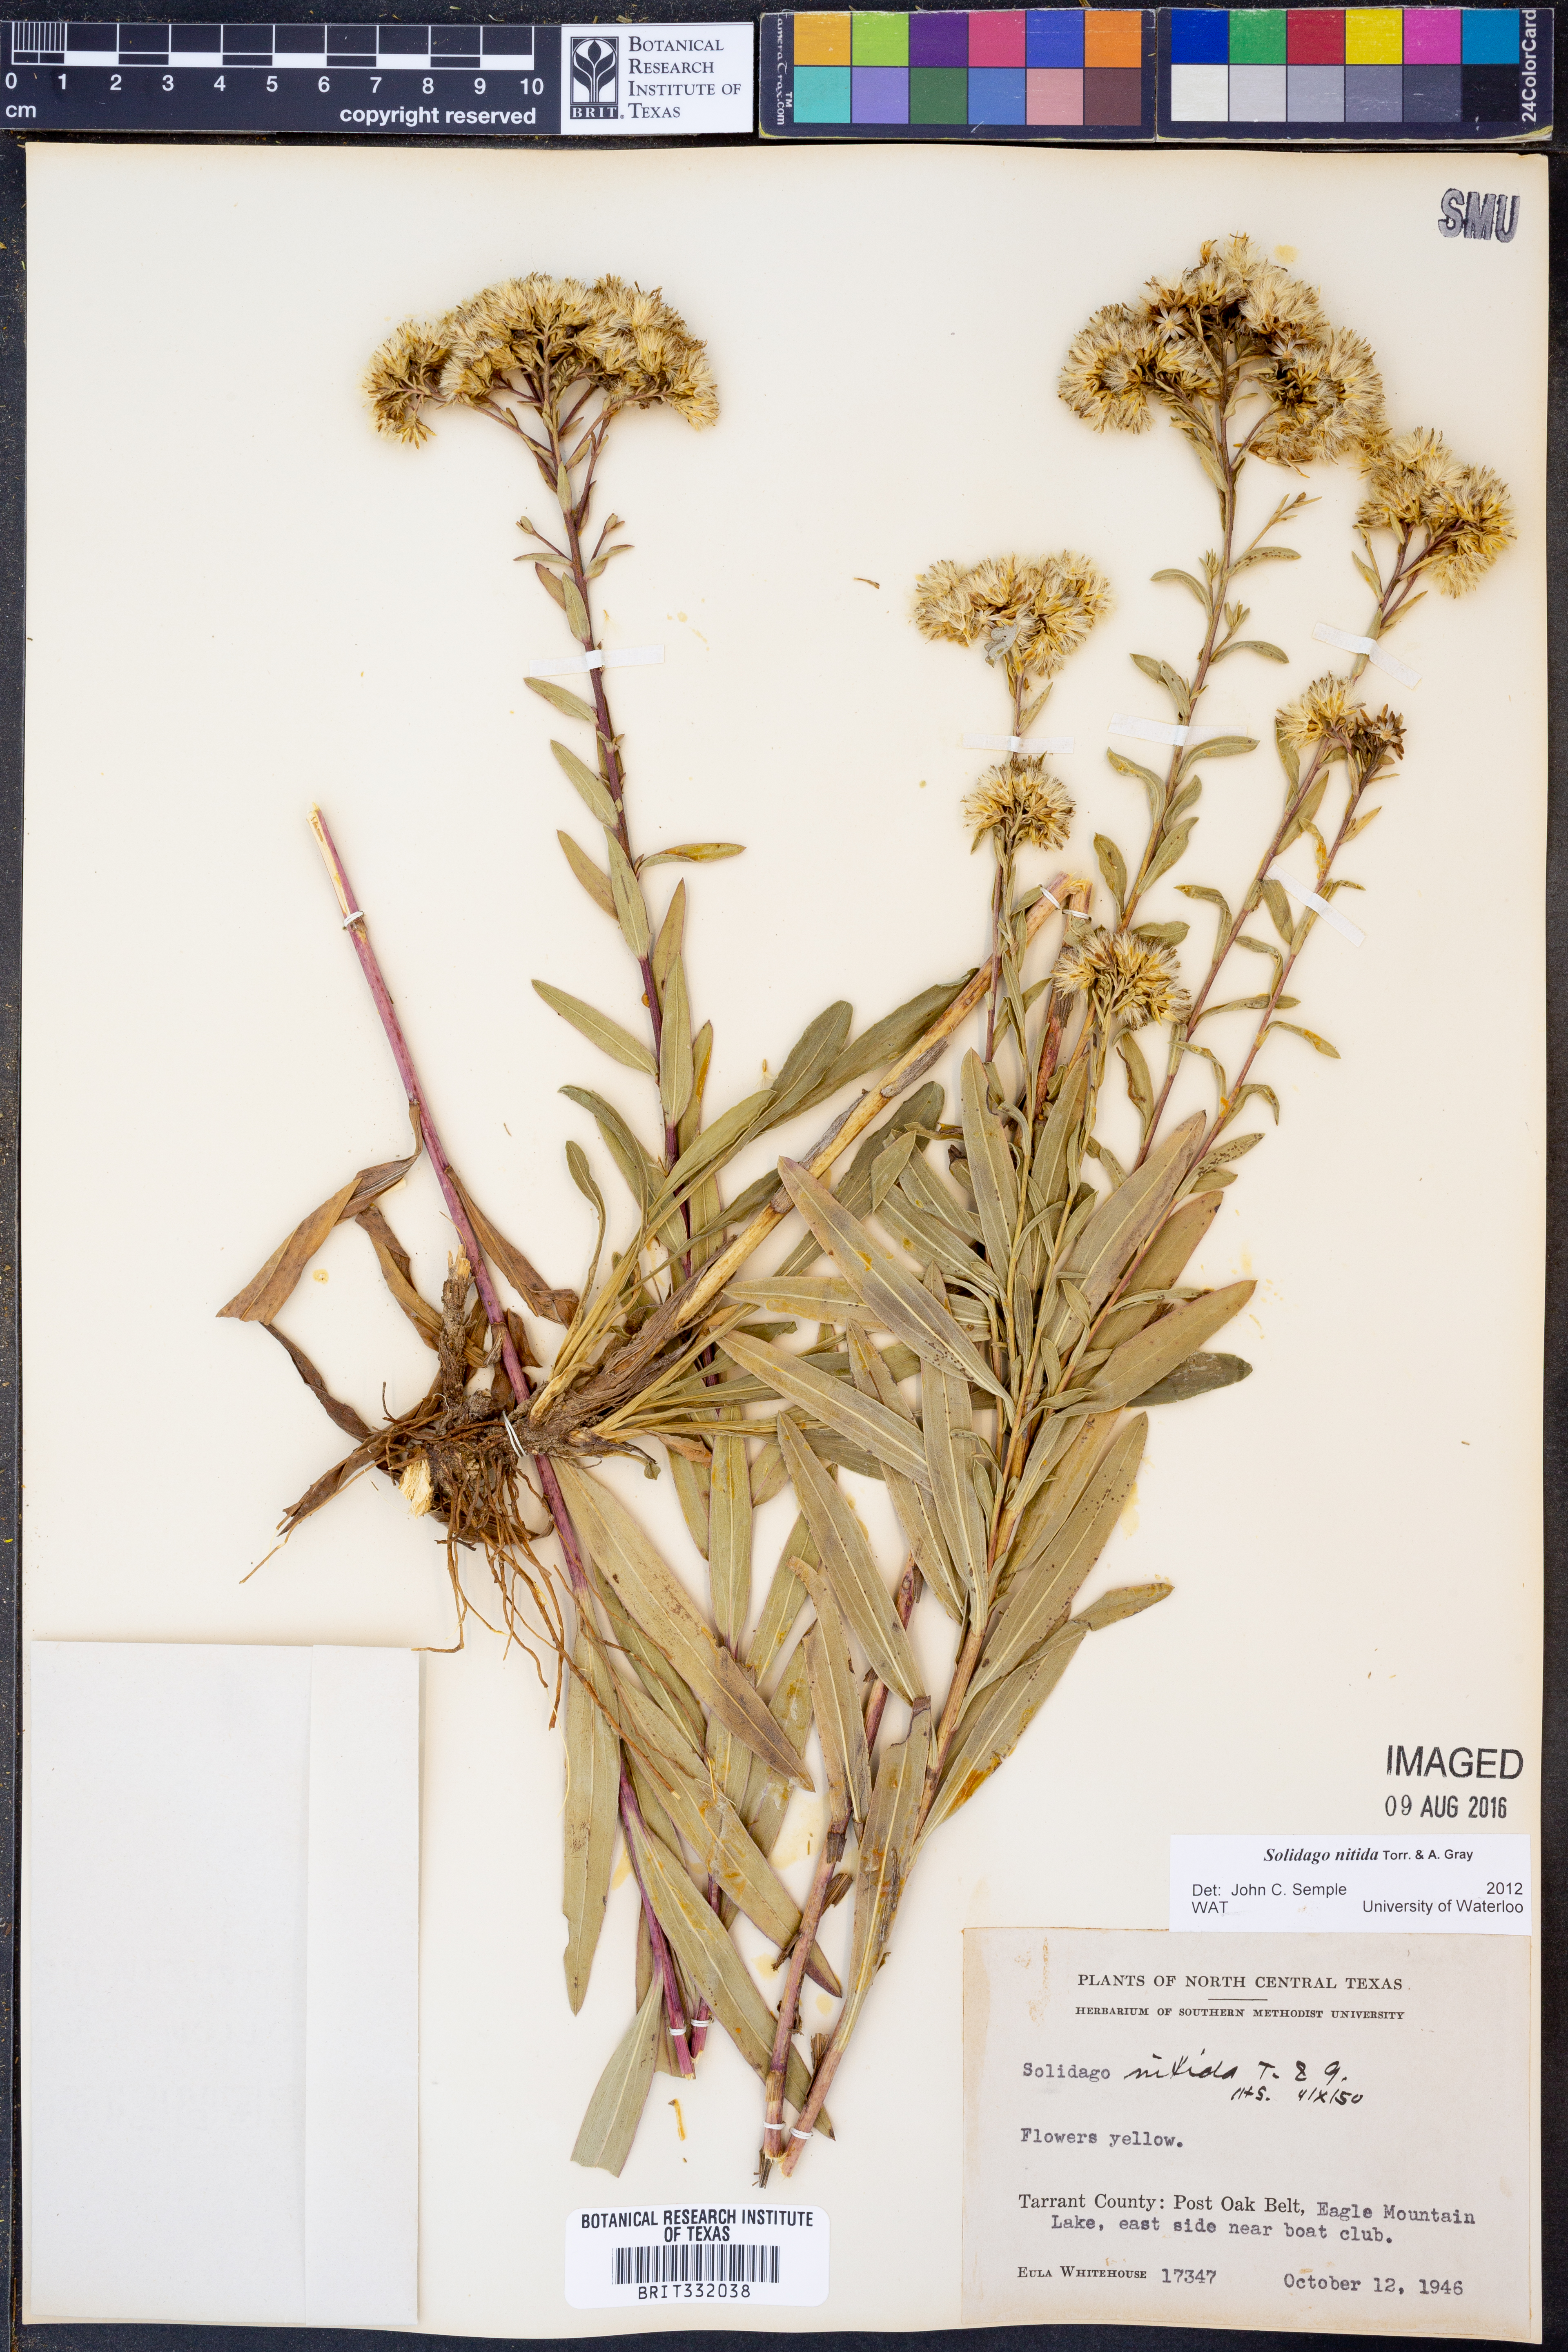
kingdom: Plantae
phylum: Tracheophyta
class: Magnoliopsida
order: Asterales
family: Asteraceae
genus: Solidago
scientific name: Solidago nitida
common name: Shiny goldenrod
